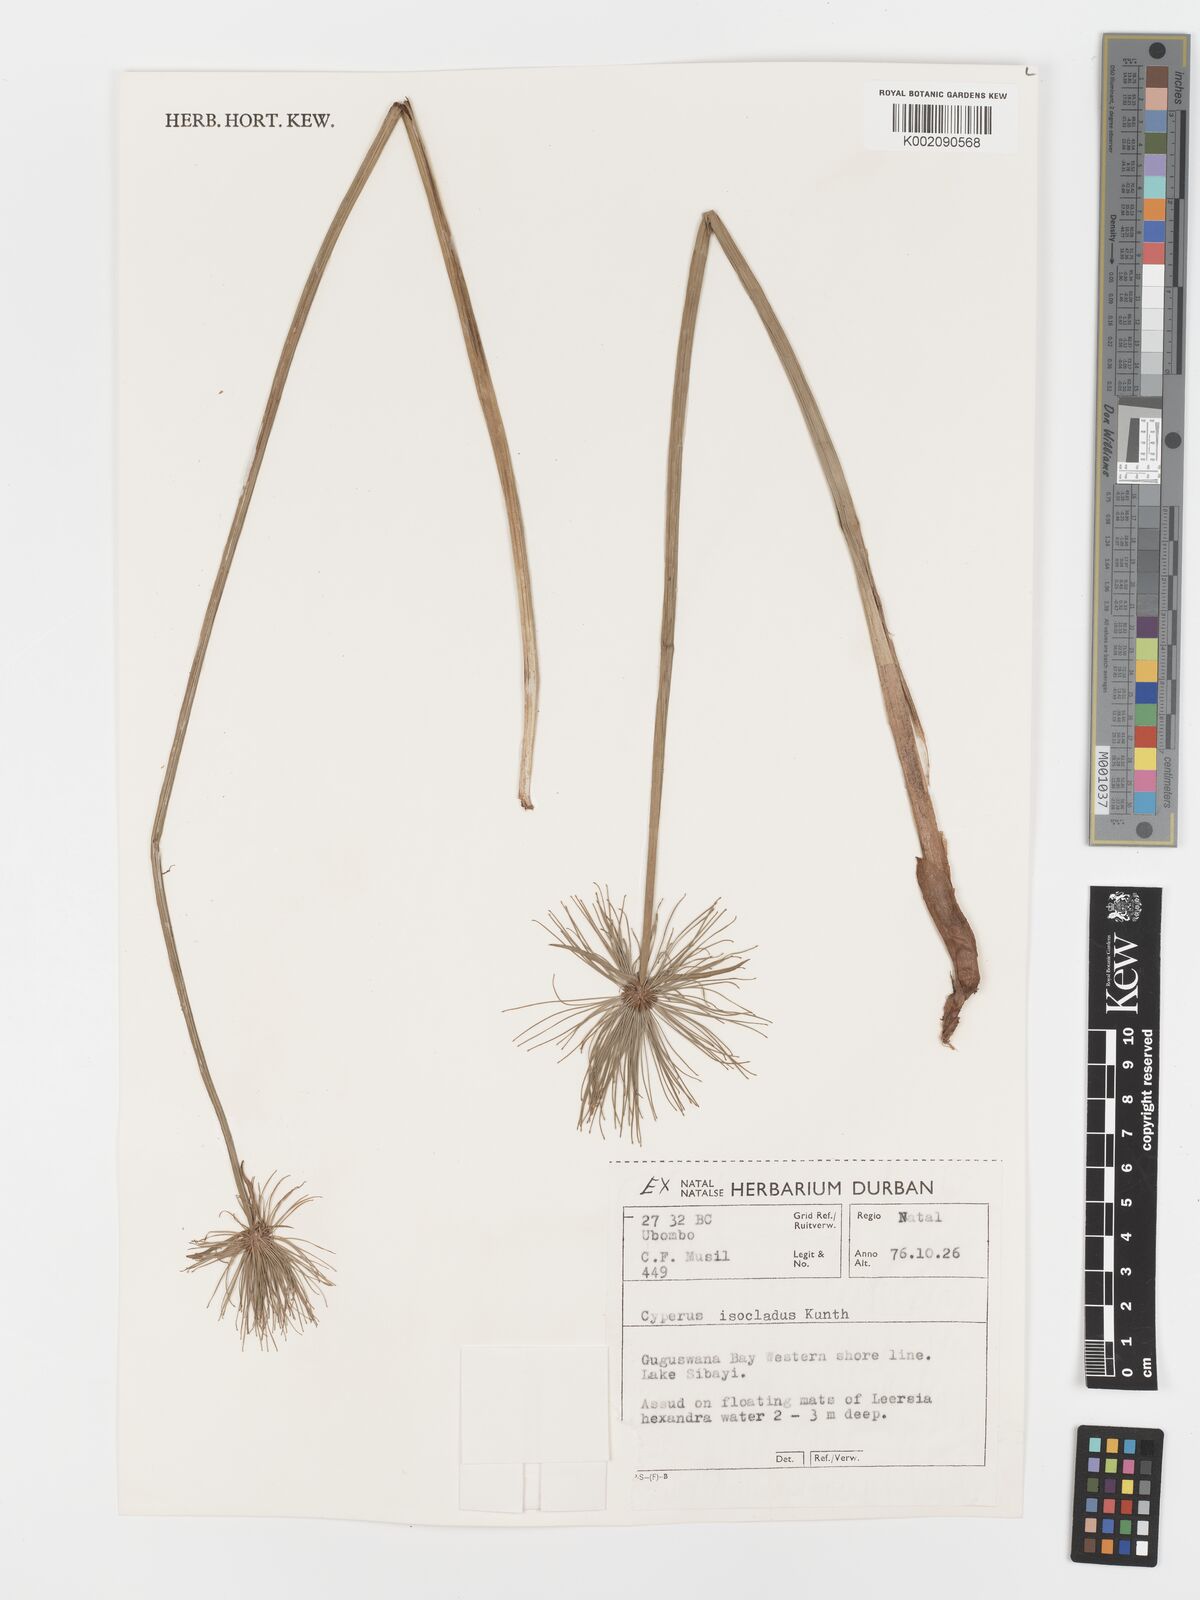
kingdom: Plantae
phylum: Tracheophyta
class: Liliopsida
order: Poales
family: Cyperaceae
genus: Cyperus
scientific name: Cyperus prolifer
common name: Miniature flatsedge
